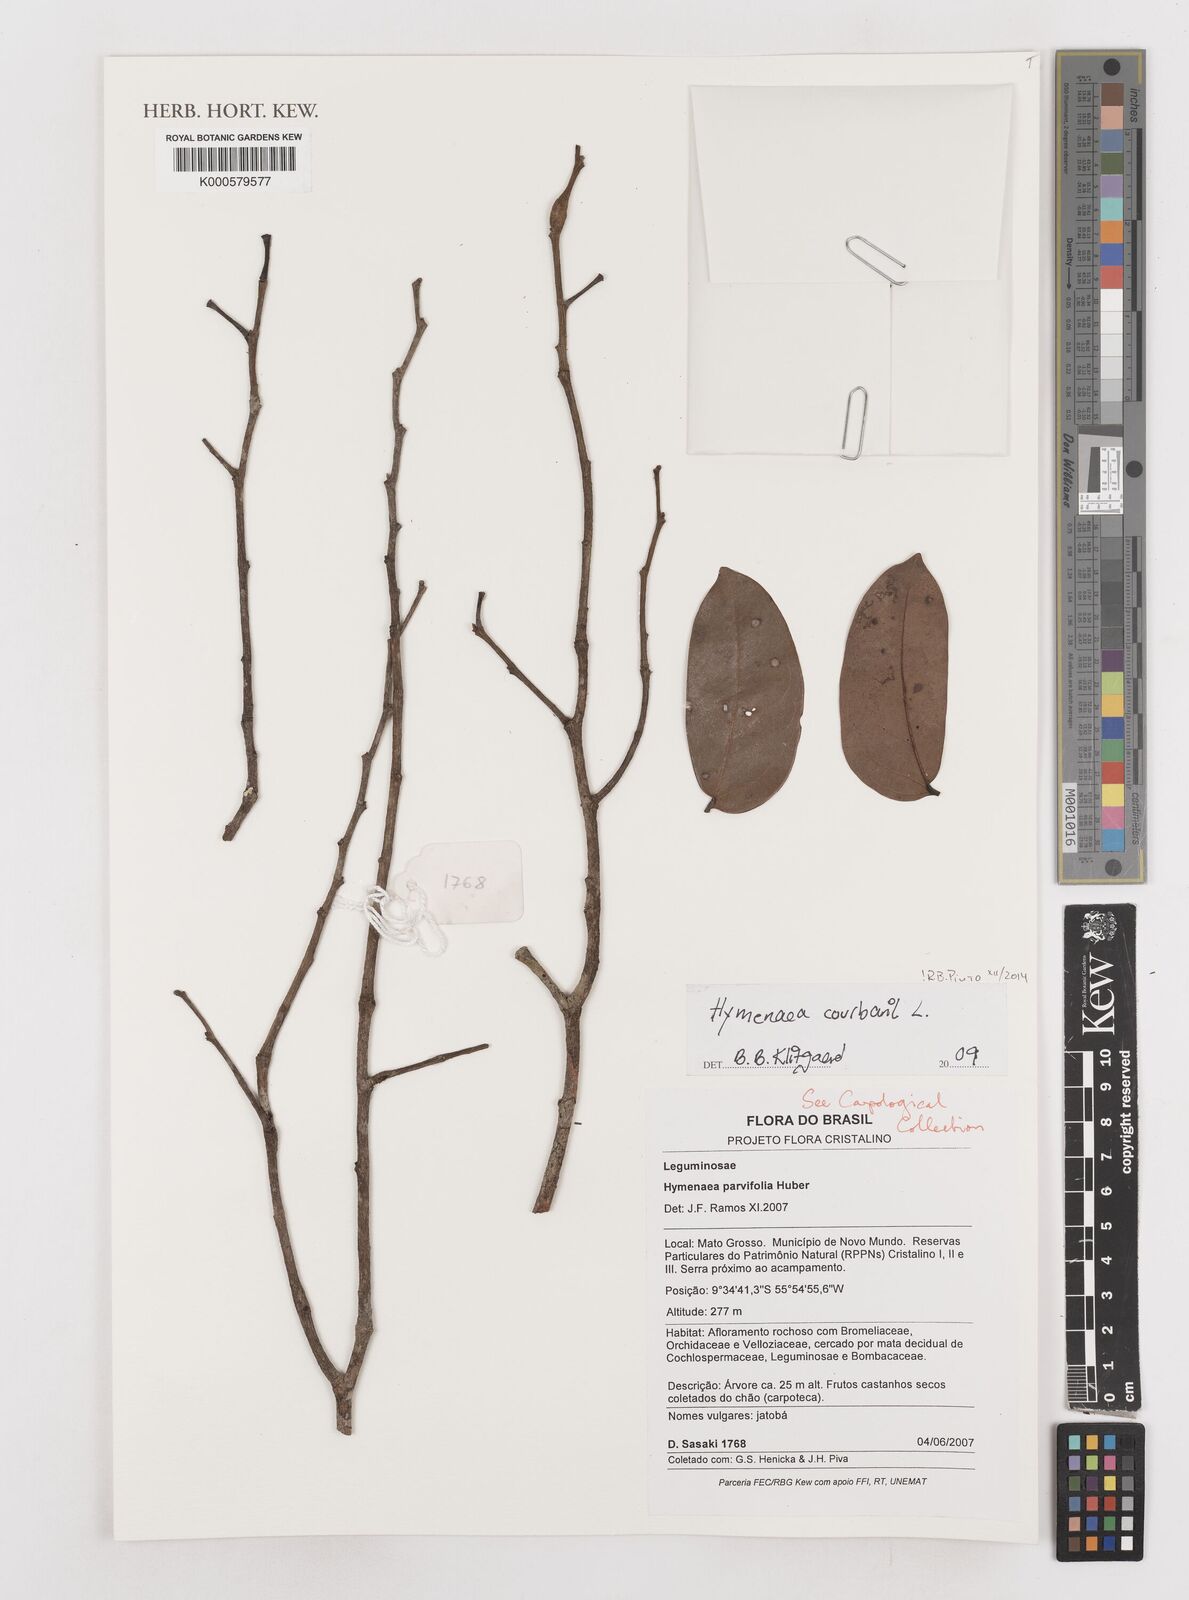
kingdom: Plantae
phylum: Tracheophyta
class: Magnoliopsida
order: Fabales
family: Fabaceae
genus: Hymenaea
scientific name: Hymenaea courbaril
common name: Brazilian copal
